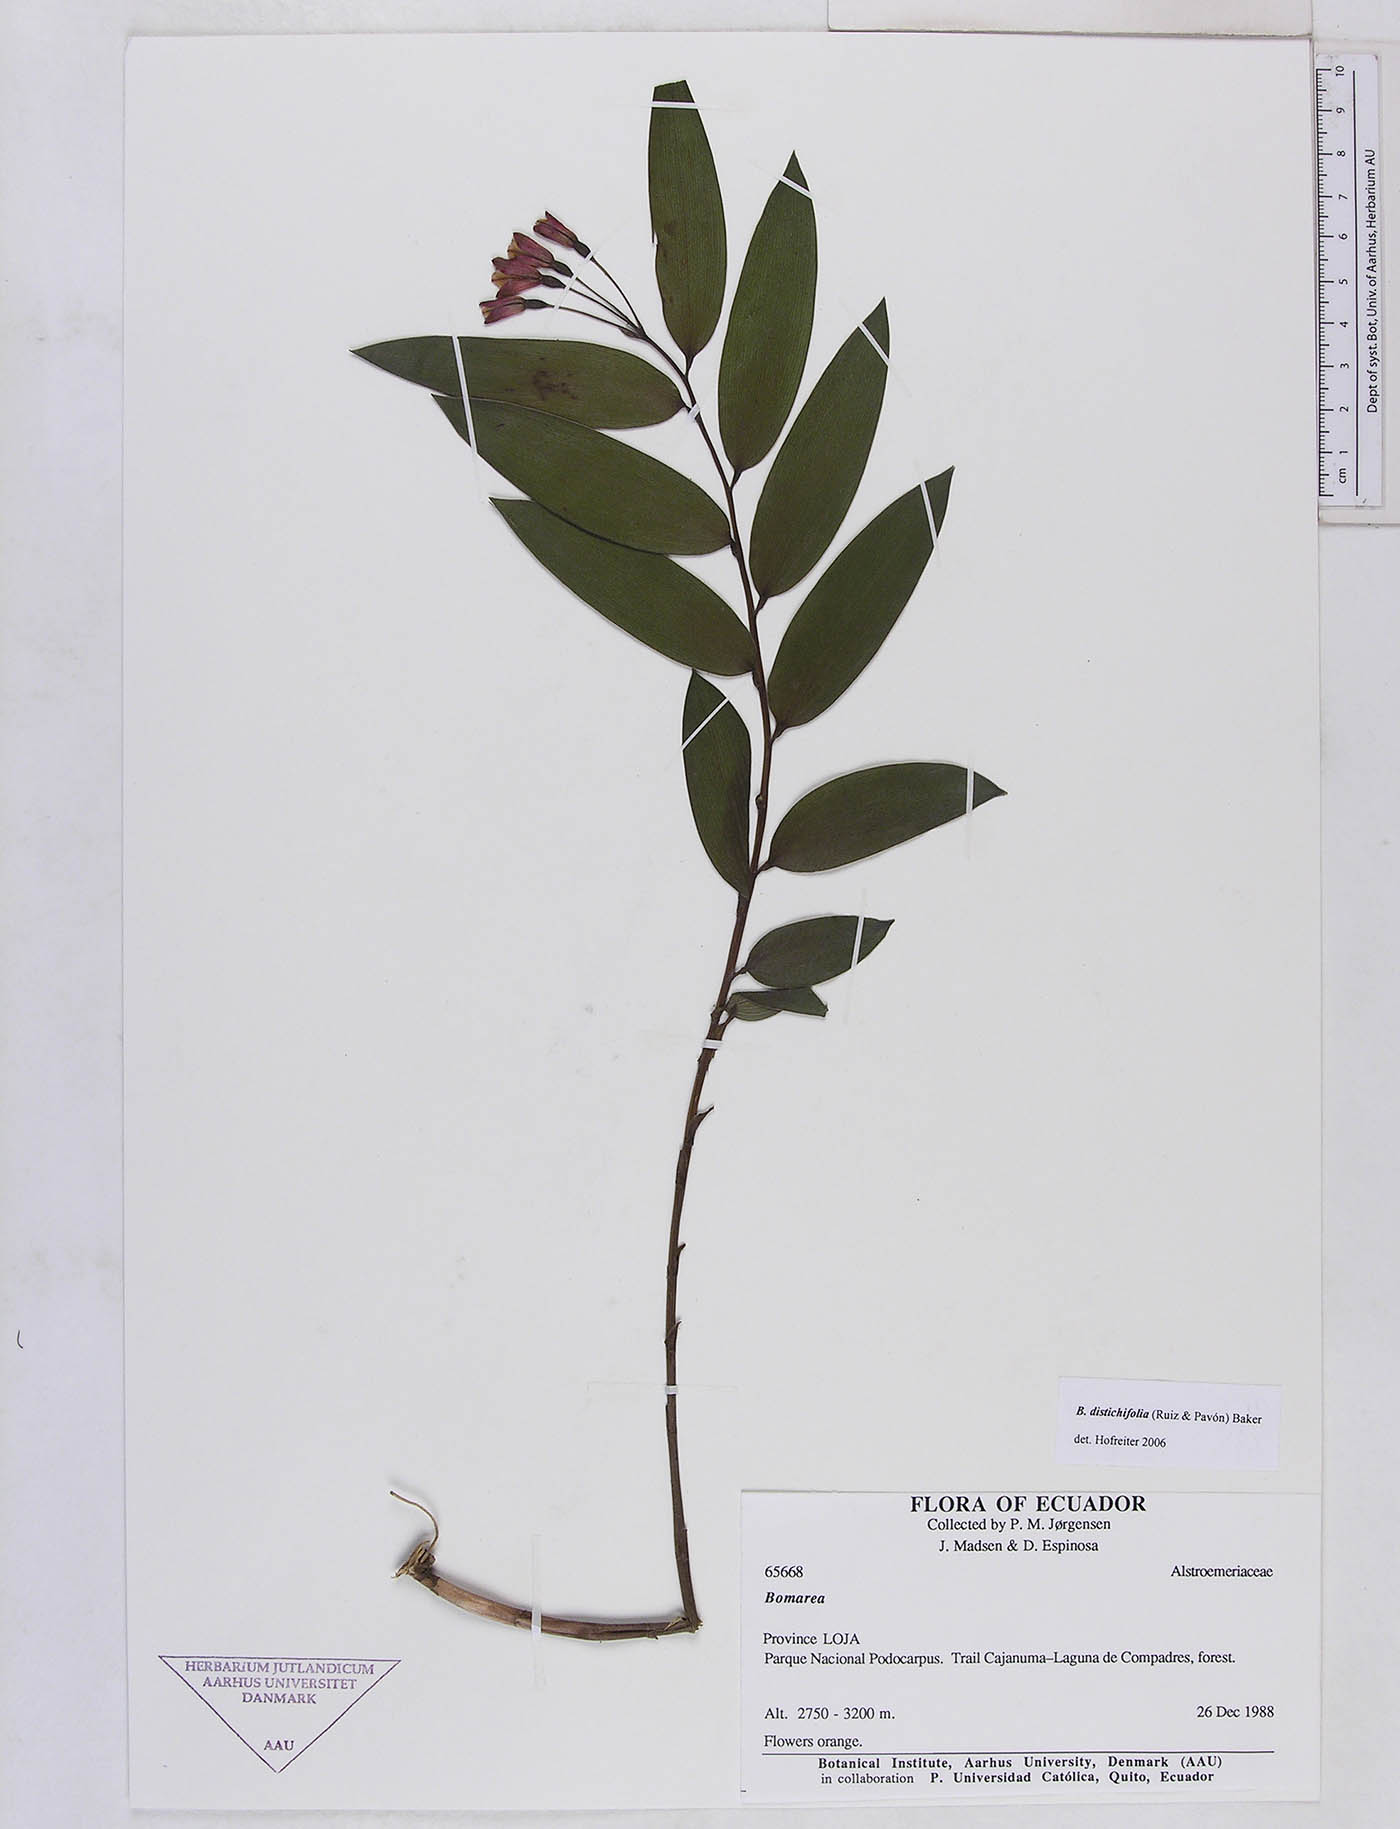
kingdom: Plantae
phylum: Tracheophyta
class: Liliopsida
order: Liliales
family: Alstroemeriaceae
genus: Bomarea
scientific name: Bomarea distichifolia
